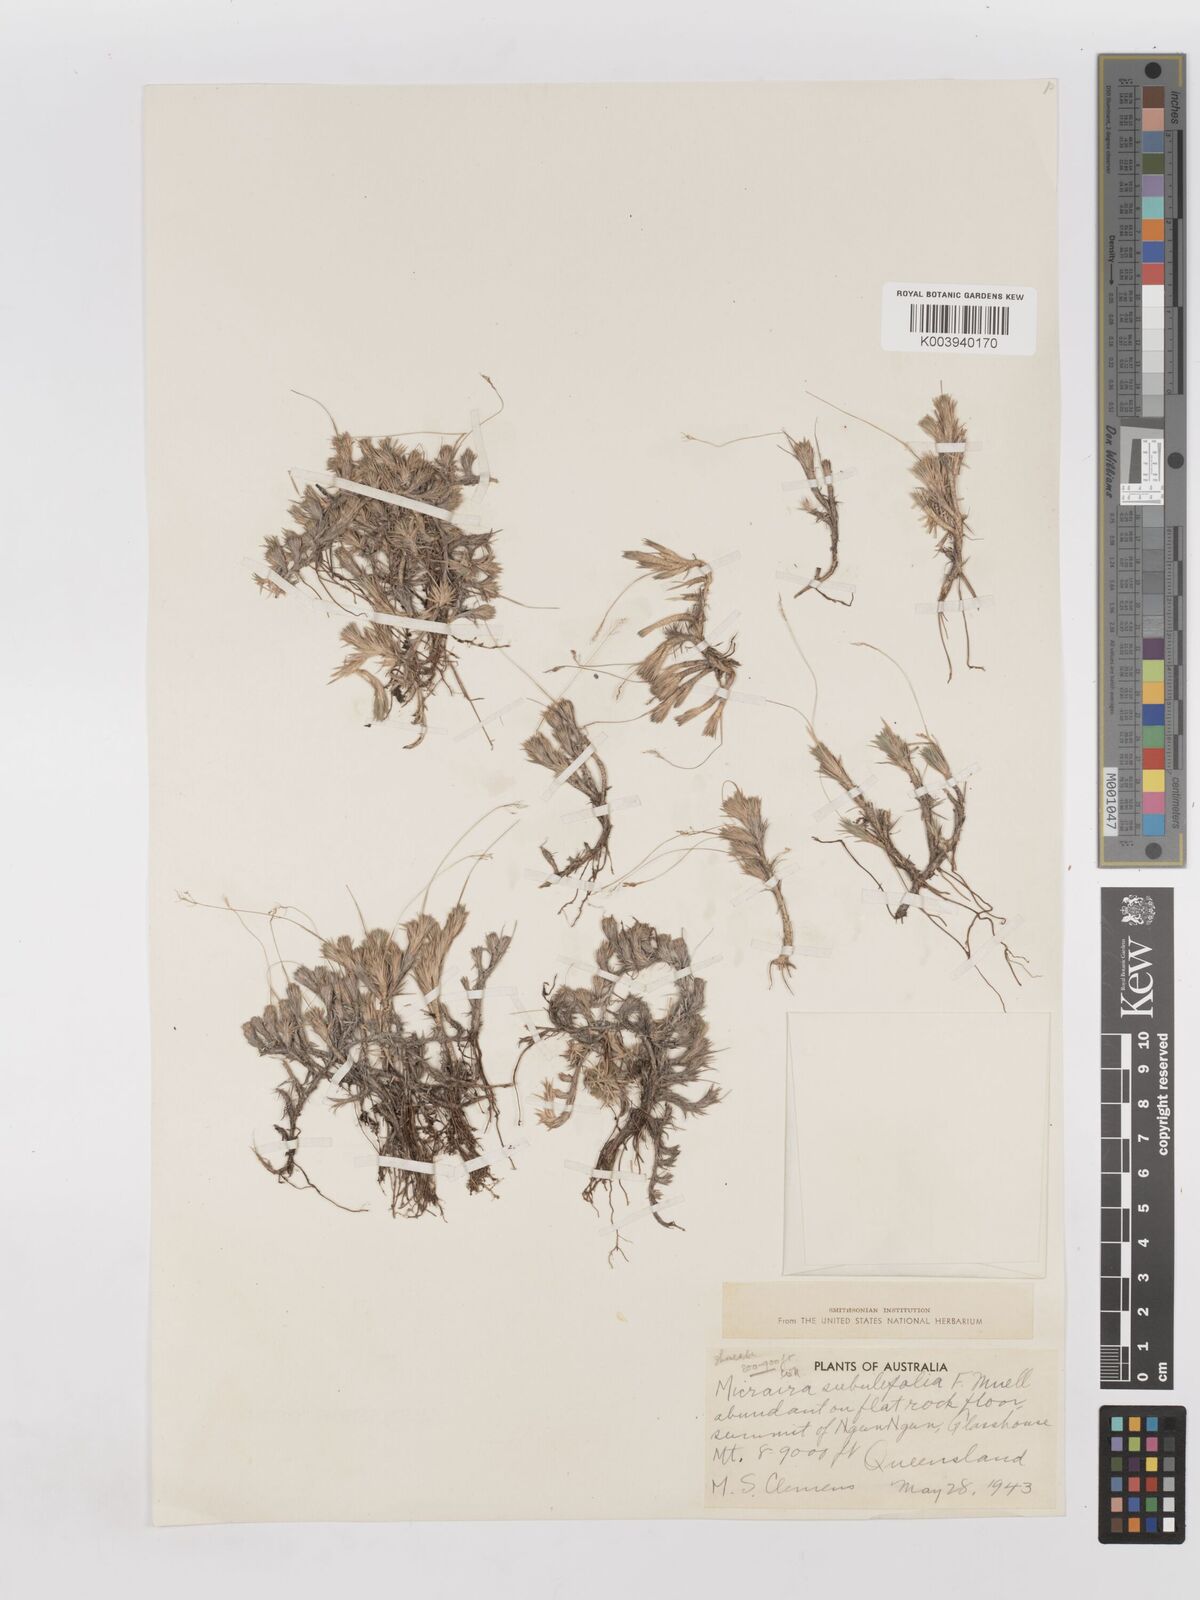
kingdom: Plantae
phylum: Tracheophyta
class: Liliopsida
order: Poales
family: Poaceae
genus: Micraira
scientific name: Micraira subulifolia
